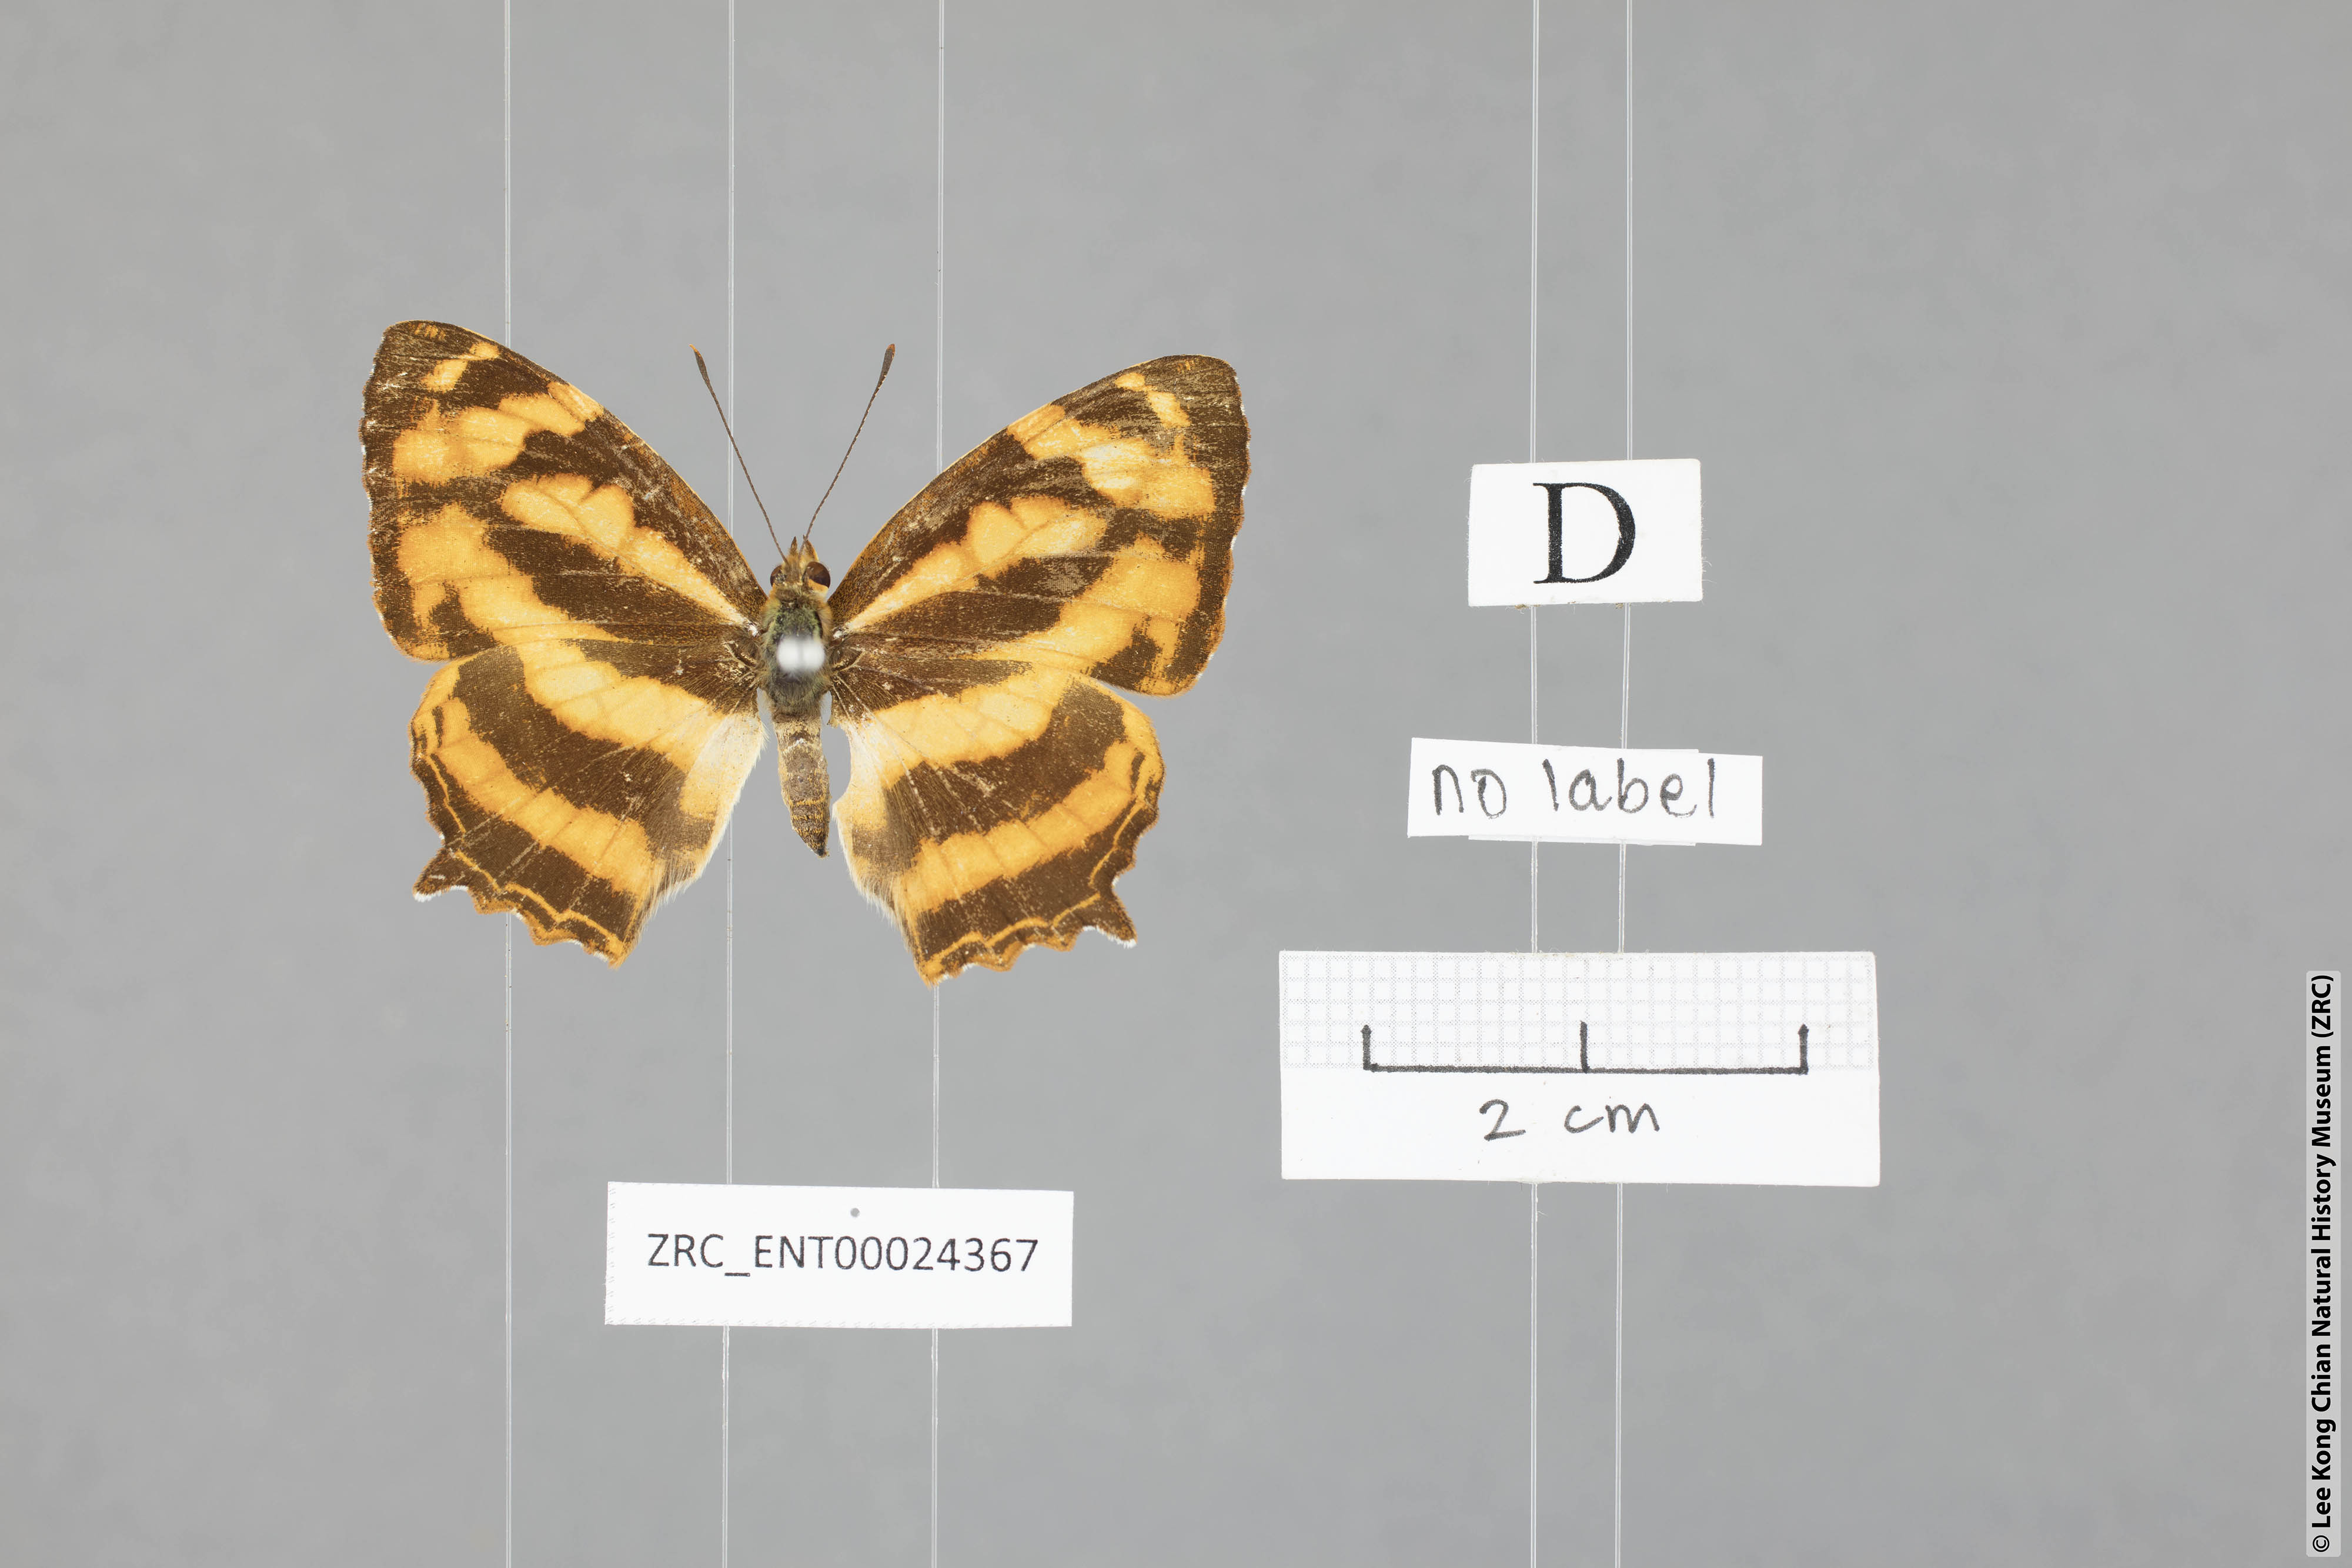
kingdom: Animalia
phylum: Arthropoda
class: Insecta
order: Lepidoptera
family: Nymphalidae
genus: Symbrenthia
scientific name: Symbrenthia hypselis
